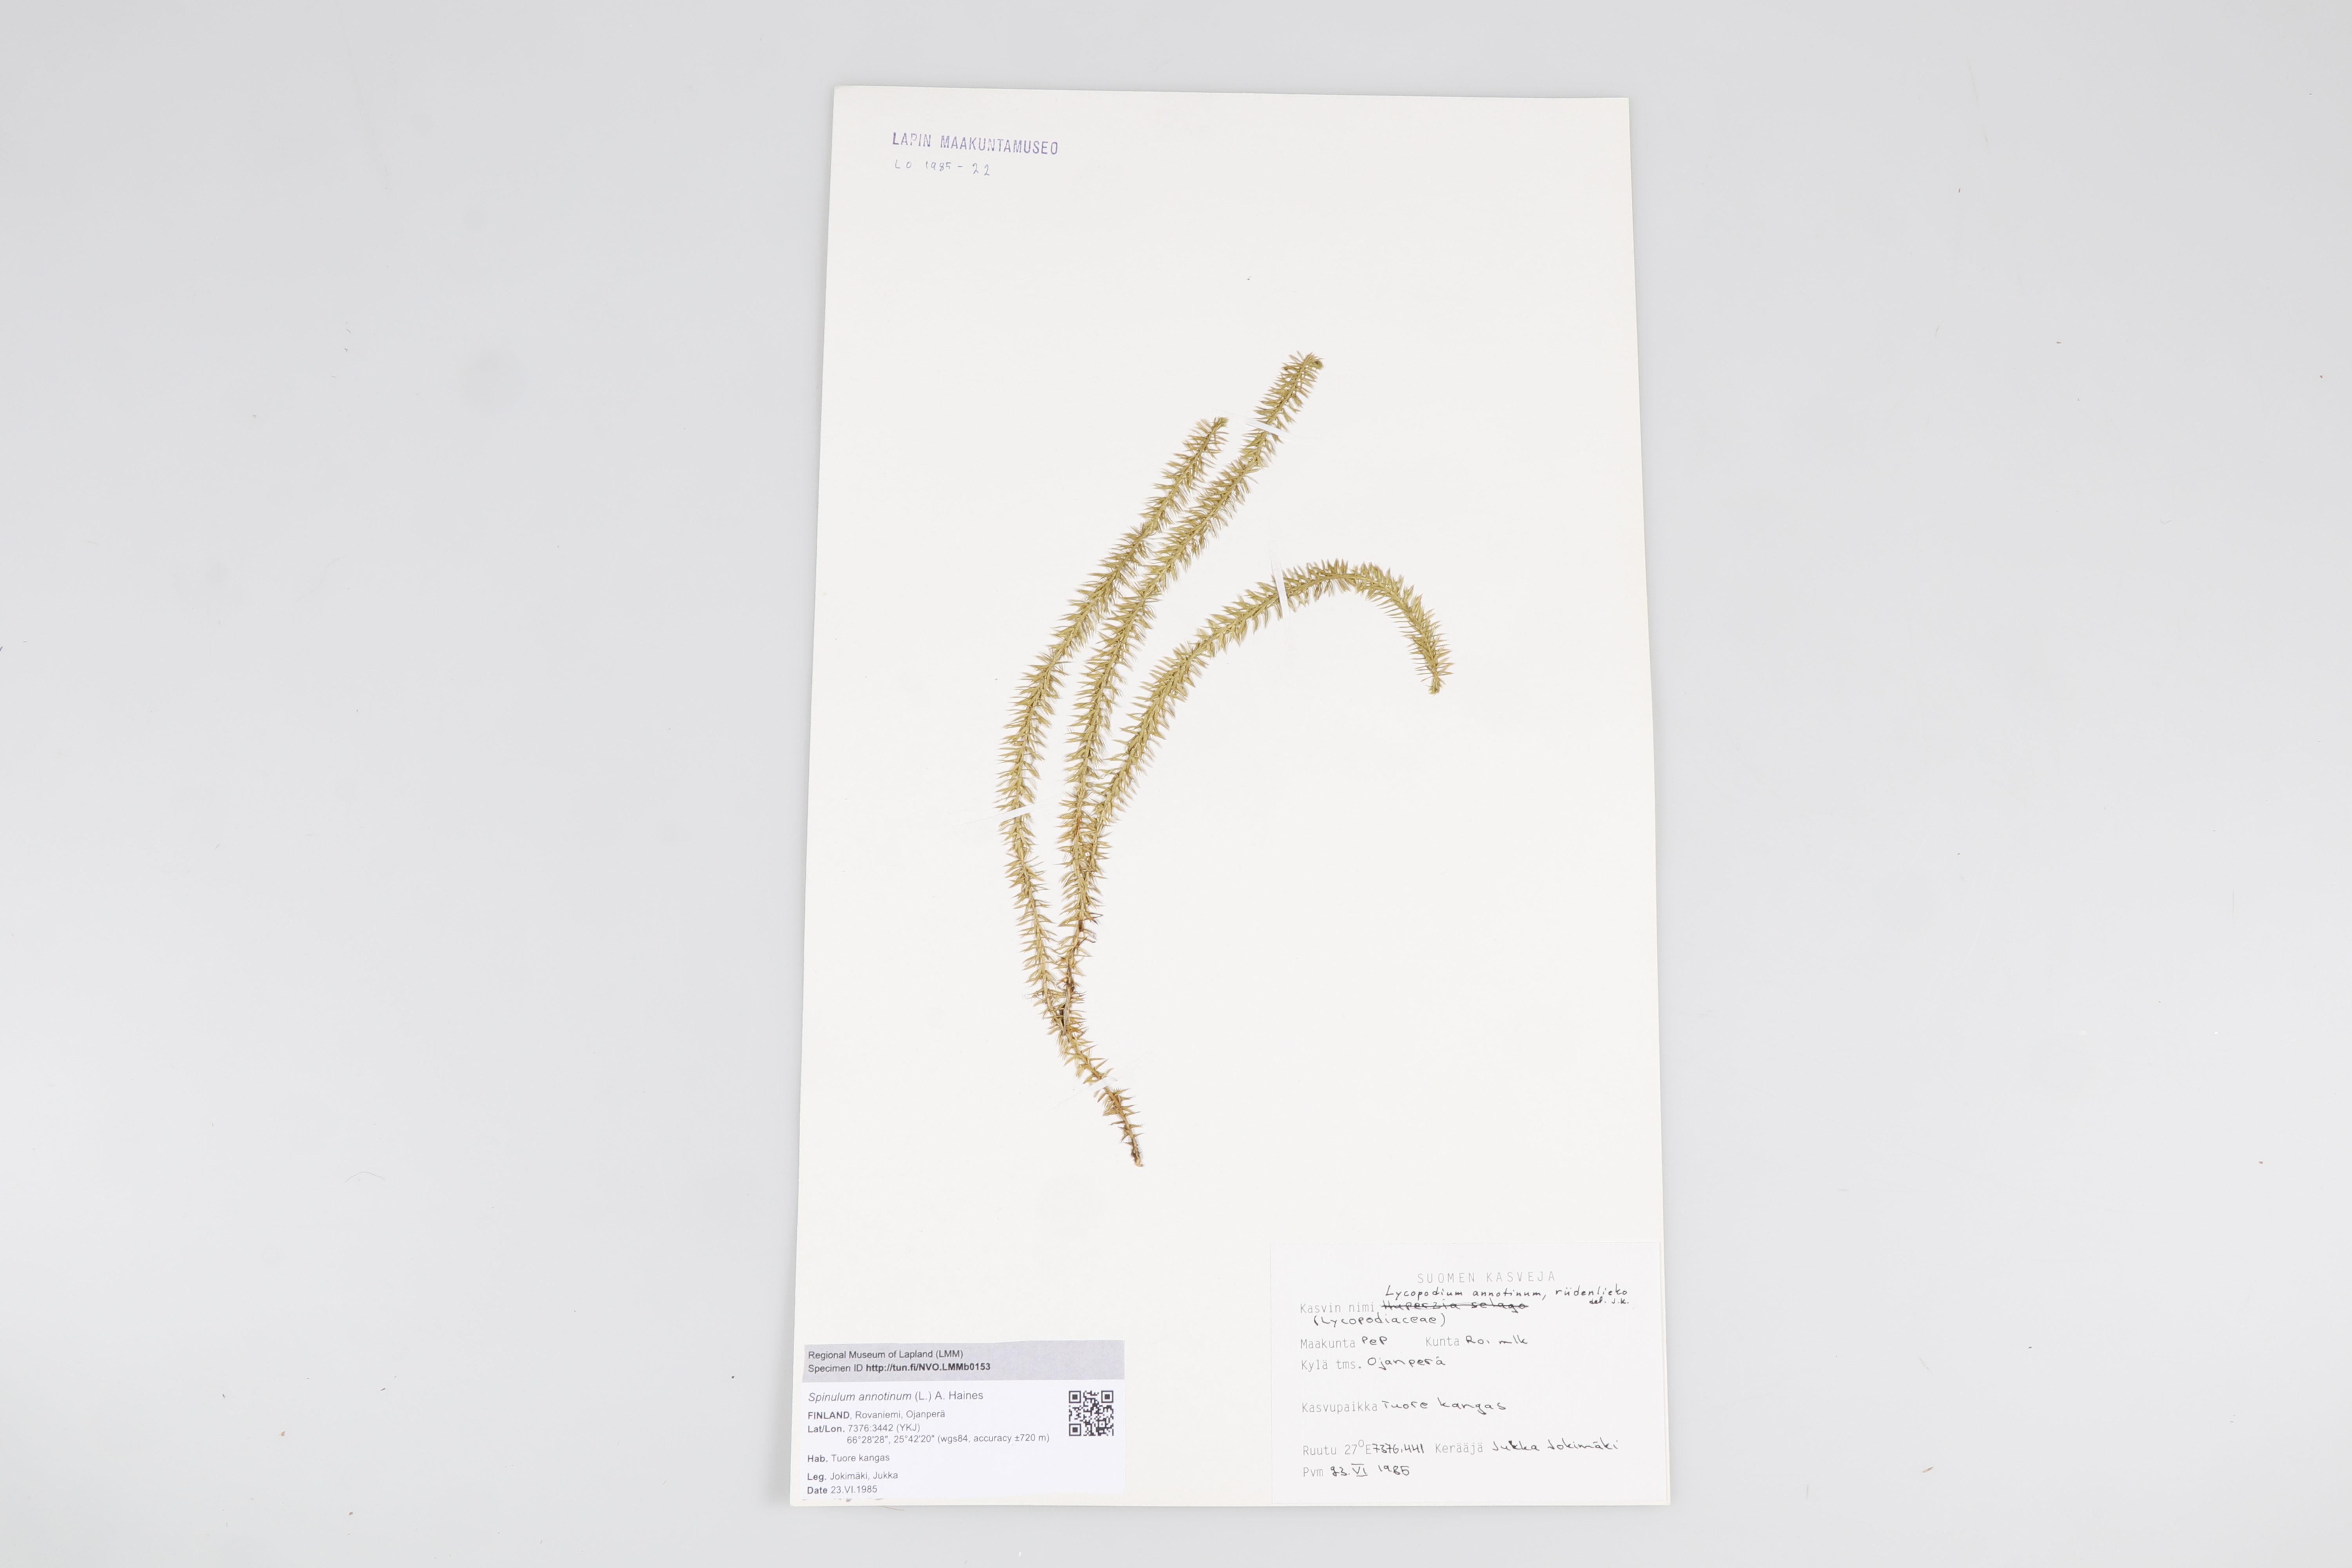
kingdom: Plantae
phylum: Tracheophyta
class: Lycopodiopsida
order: Lycopodiales
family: Lycopodiaceae
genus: Spinulum
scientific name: Spinulum annotinum
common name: Interrupted club-moss
